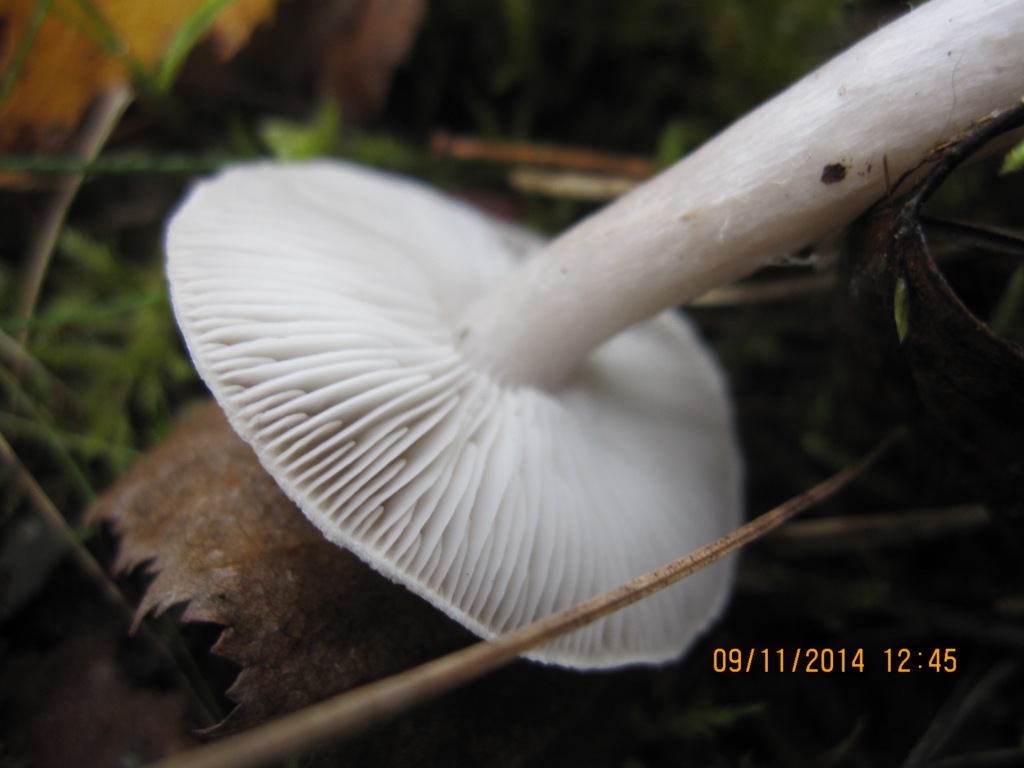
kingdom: Fungi
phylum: Basidiomycota
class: Agaricomycetes
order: Agaricales
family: Tricholomataceae
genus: Tricholoma
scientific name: Tricholoma scalpturatum
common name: gulplettet ridderhat
